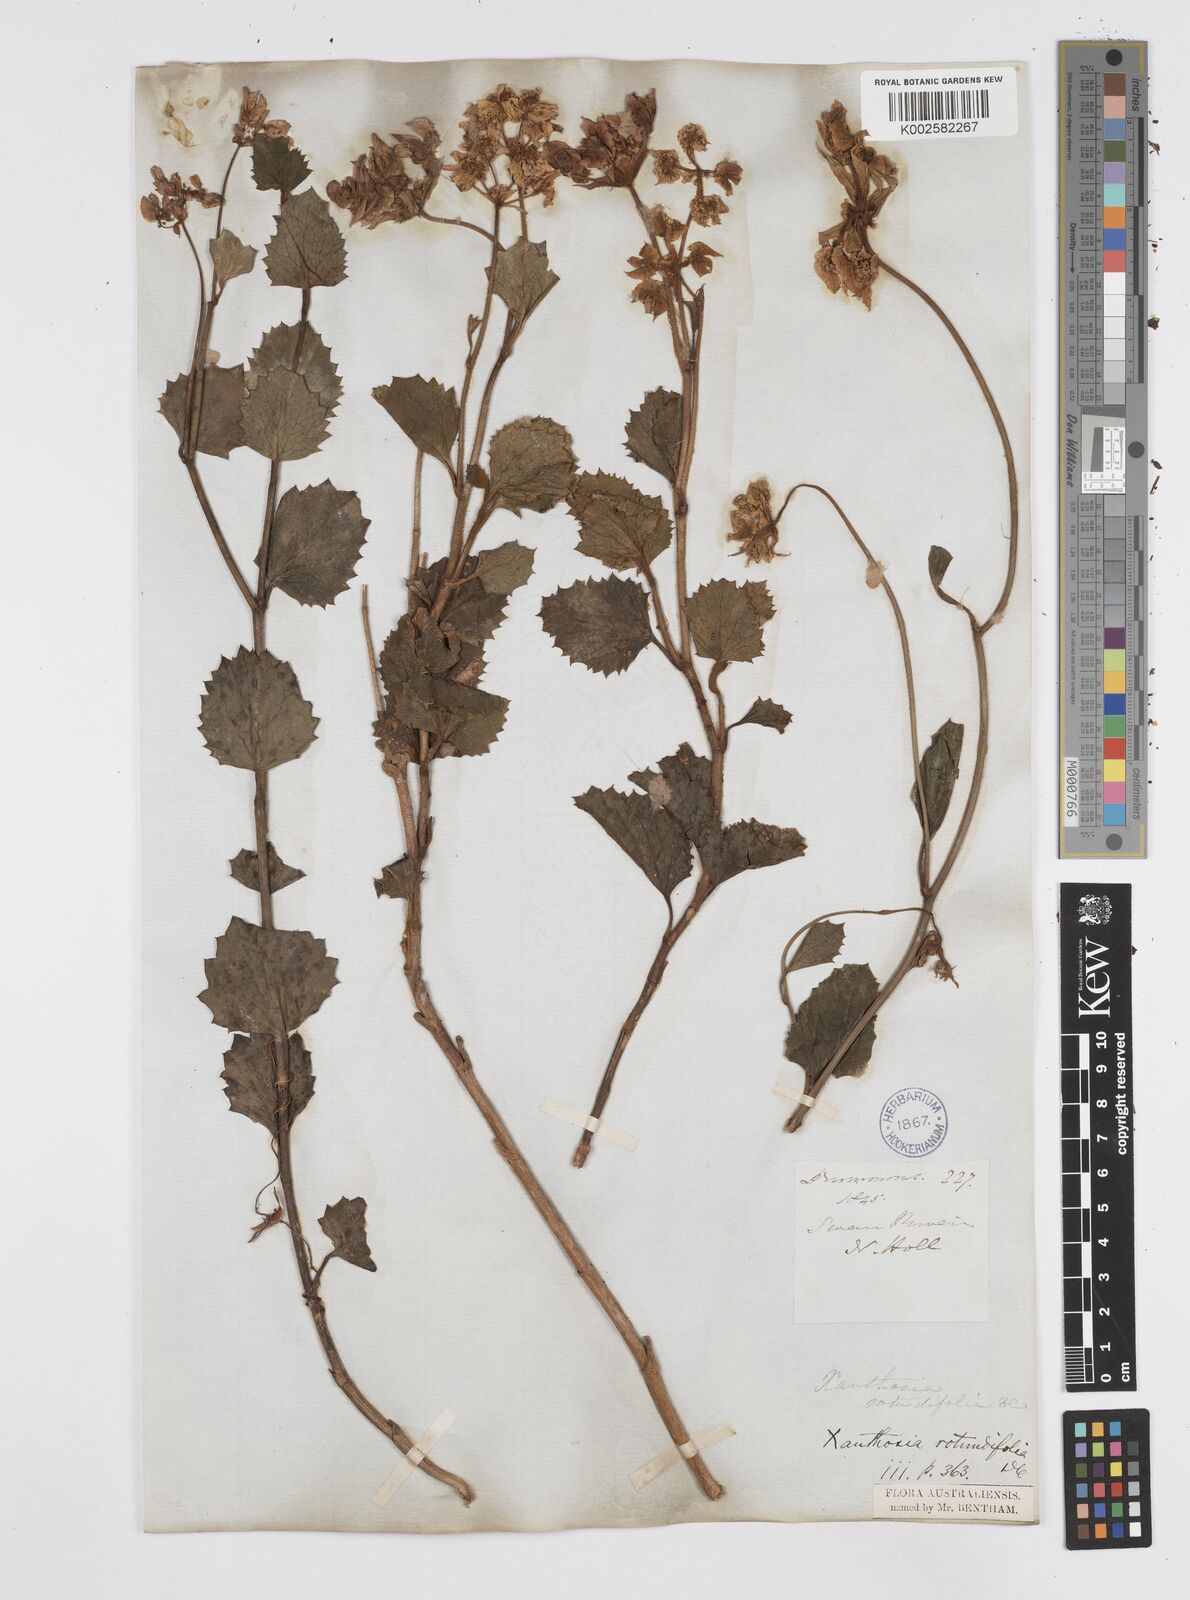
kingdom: Plantae
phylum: Tracheophyta
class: Magnoliopsida
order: Apiales
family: Apiaceae
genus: Xanthosia
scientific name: Xanthosia rotundifolia
